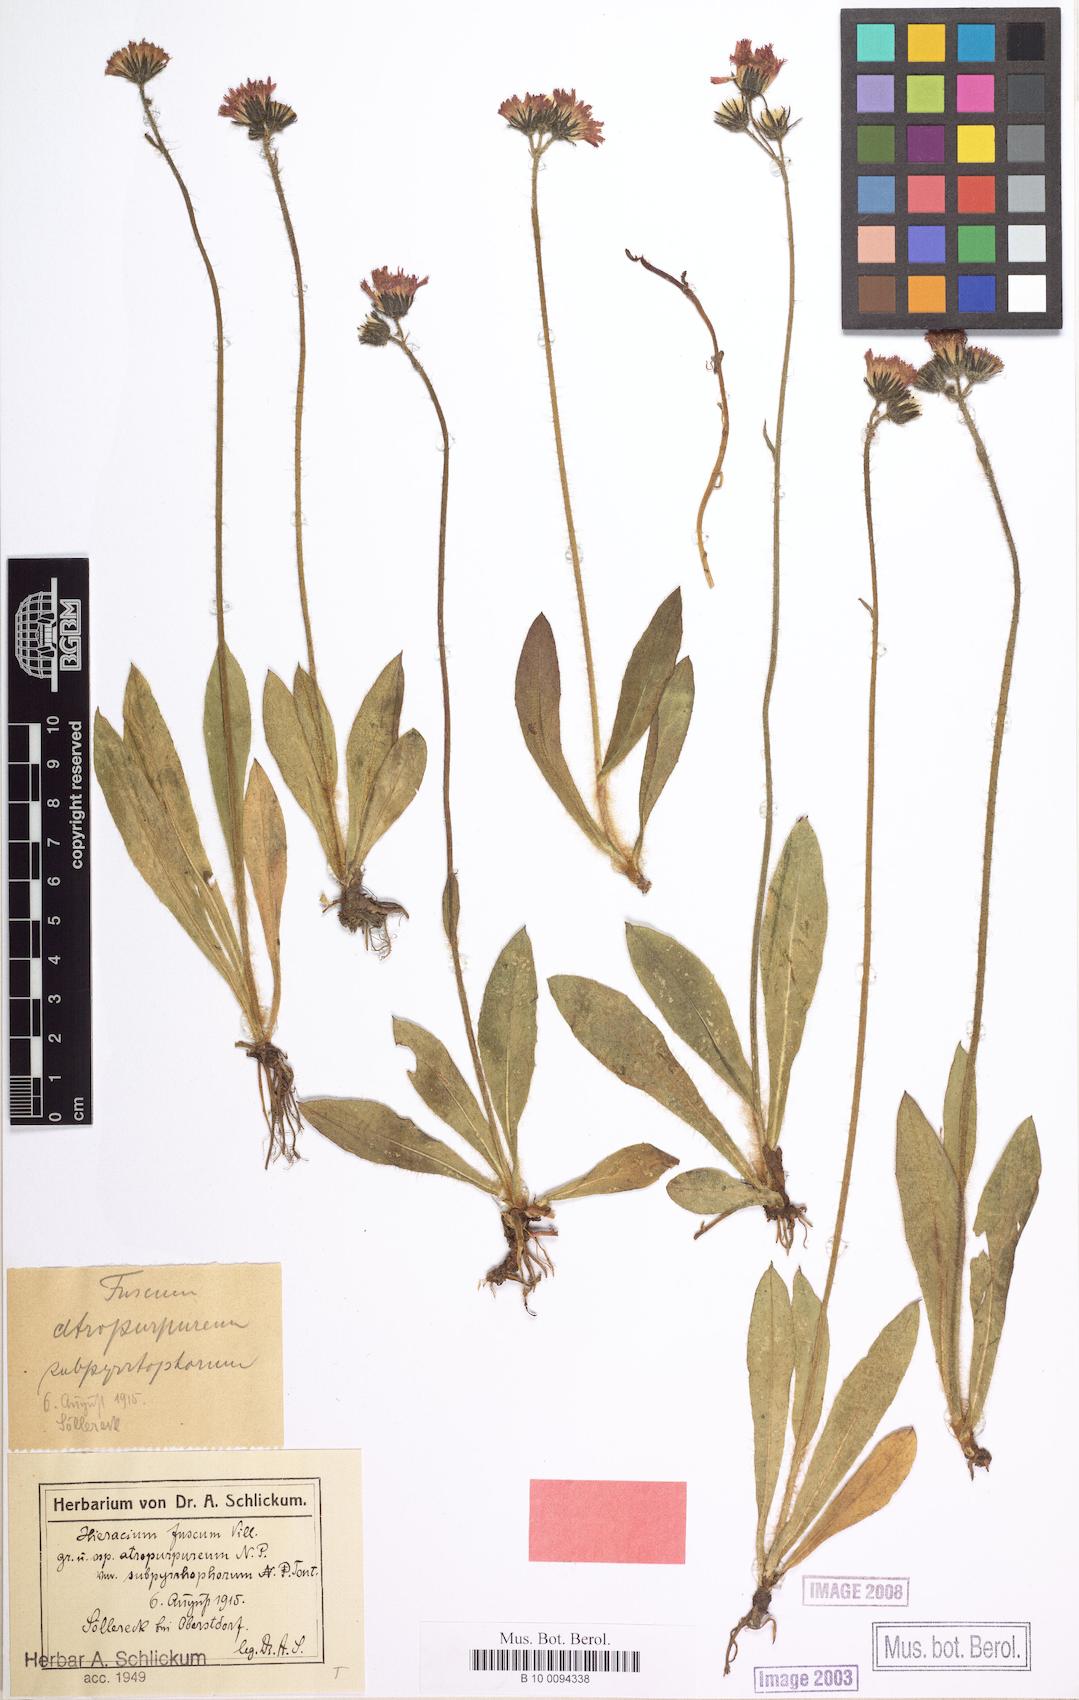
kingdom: Plantae
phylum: Tracheophyta
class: Magnoliopsida
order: Asterales
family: Asteraceae
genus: Hieracium
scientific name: Hieracium fuscum
